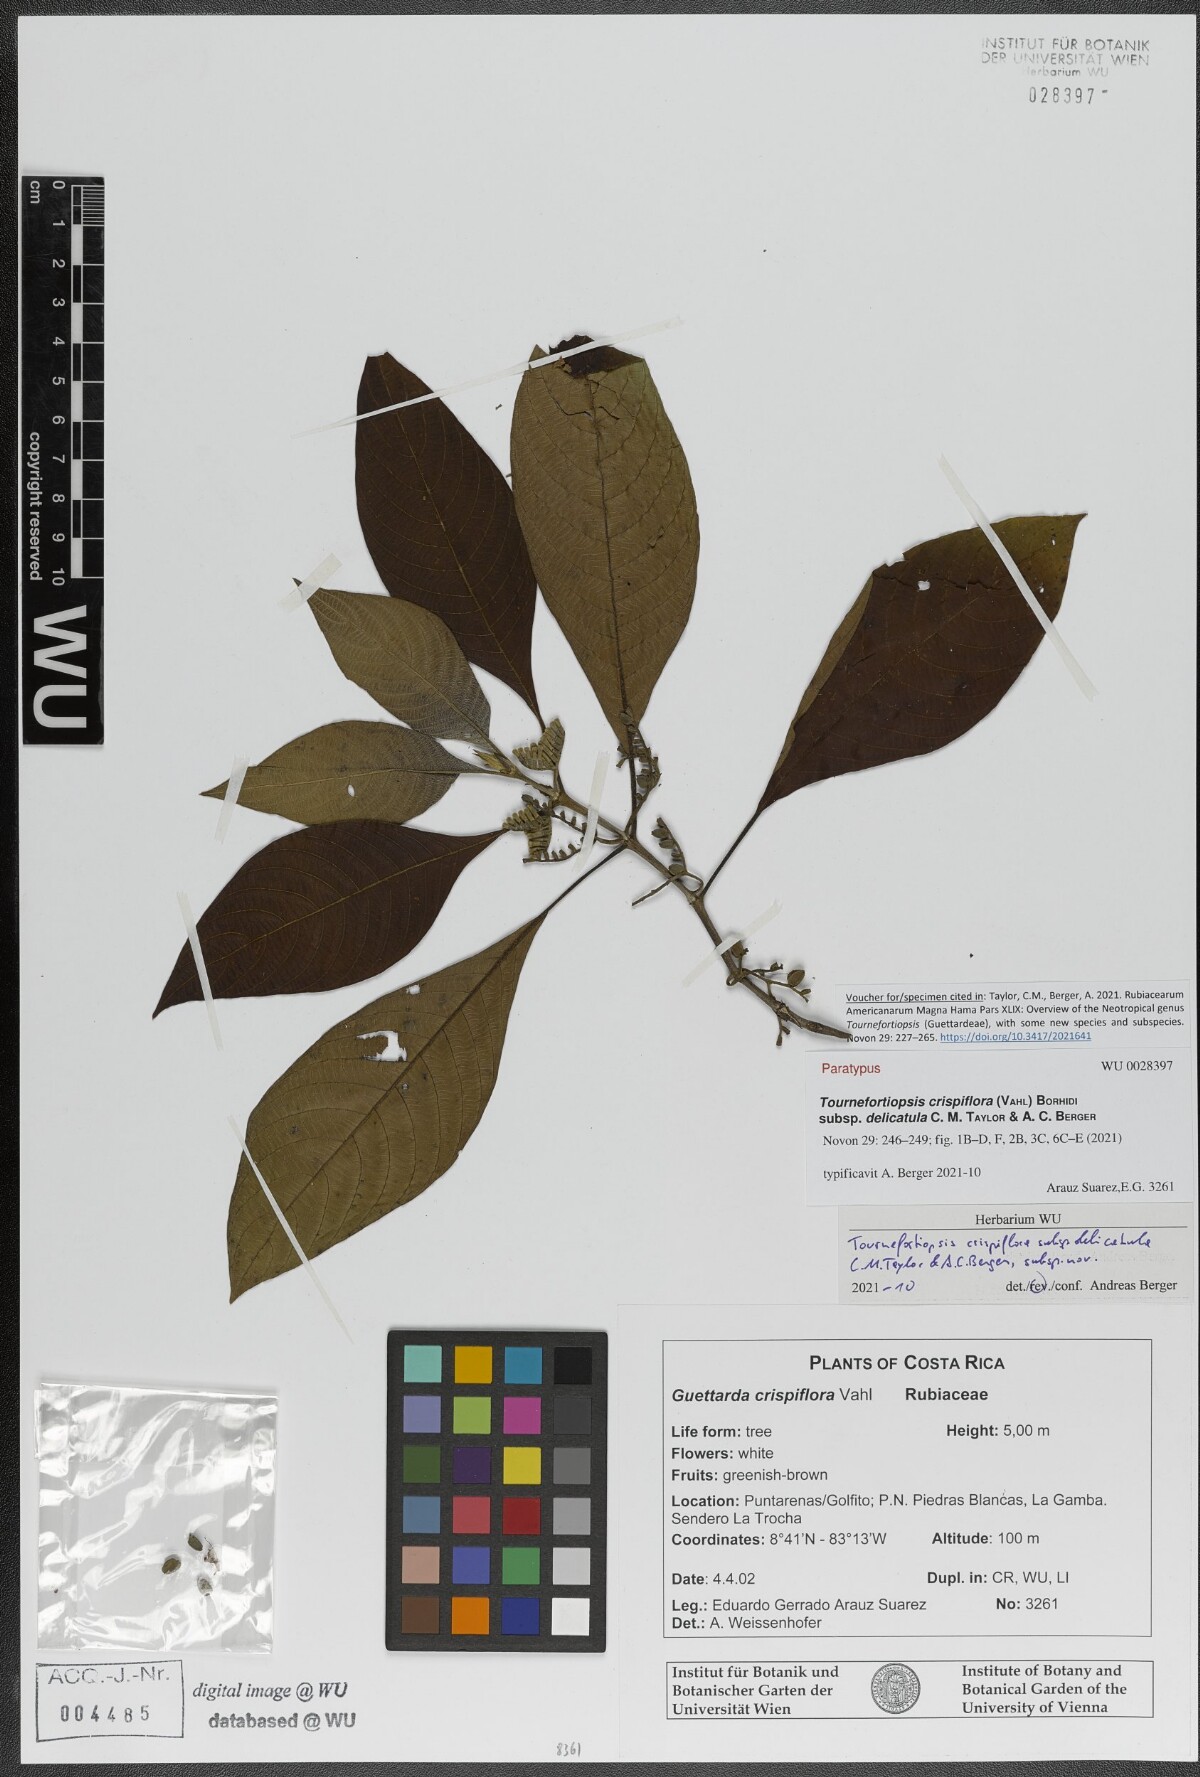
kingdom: Plantae
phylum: Tracheophyta
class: Magnoliopsida
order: Gentianales
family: Rubiaceae
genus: Tournefortiopsis
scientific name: Tournefortiopsis crispiflora
